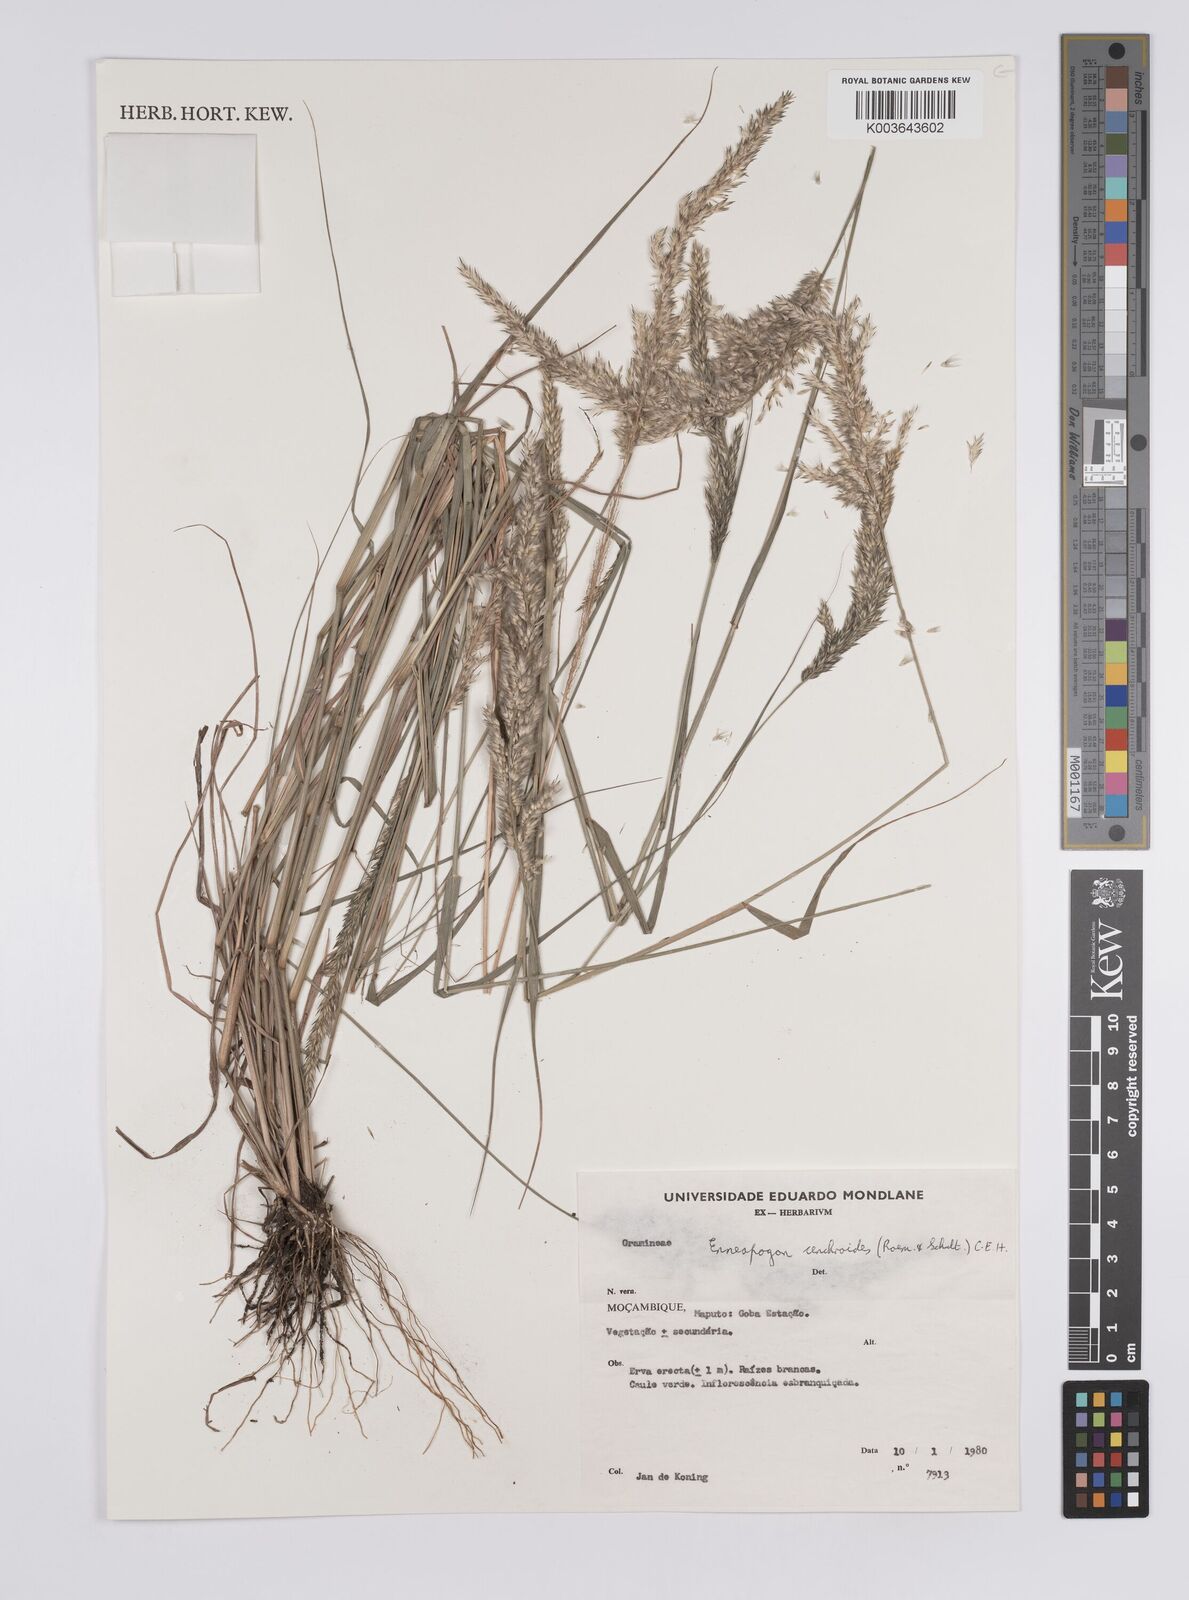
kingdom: Plantae
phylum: Tracheophyta
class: Liliopsida
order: Poales
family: Poaceae
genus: Enneapogon
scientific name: Enneapogon cenchroides
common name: Soft feather pappusgrass
